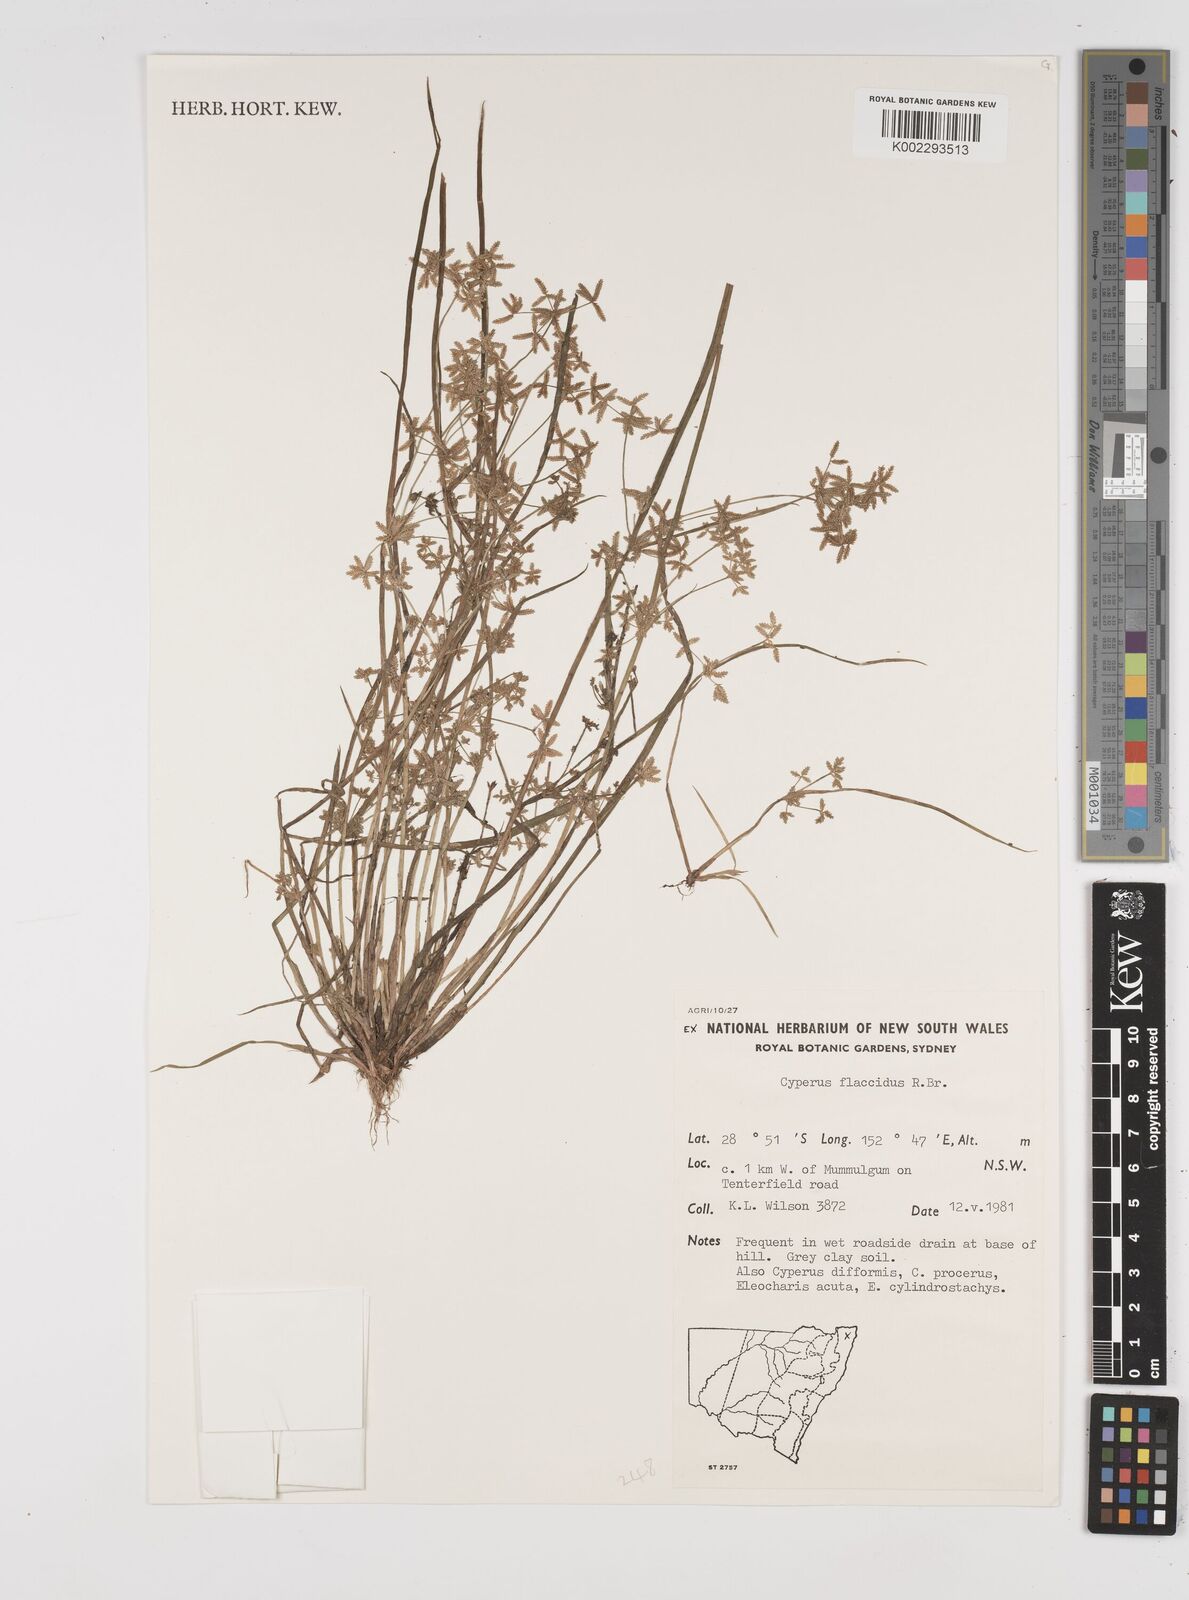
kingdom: Plantae
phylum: Tracheophyta
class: Liliopsida
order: Poales
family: Cyperaceae
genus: Cyperus
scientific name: Cyperus flaccidus
